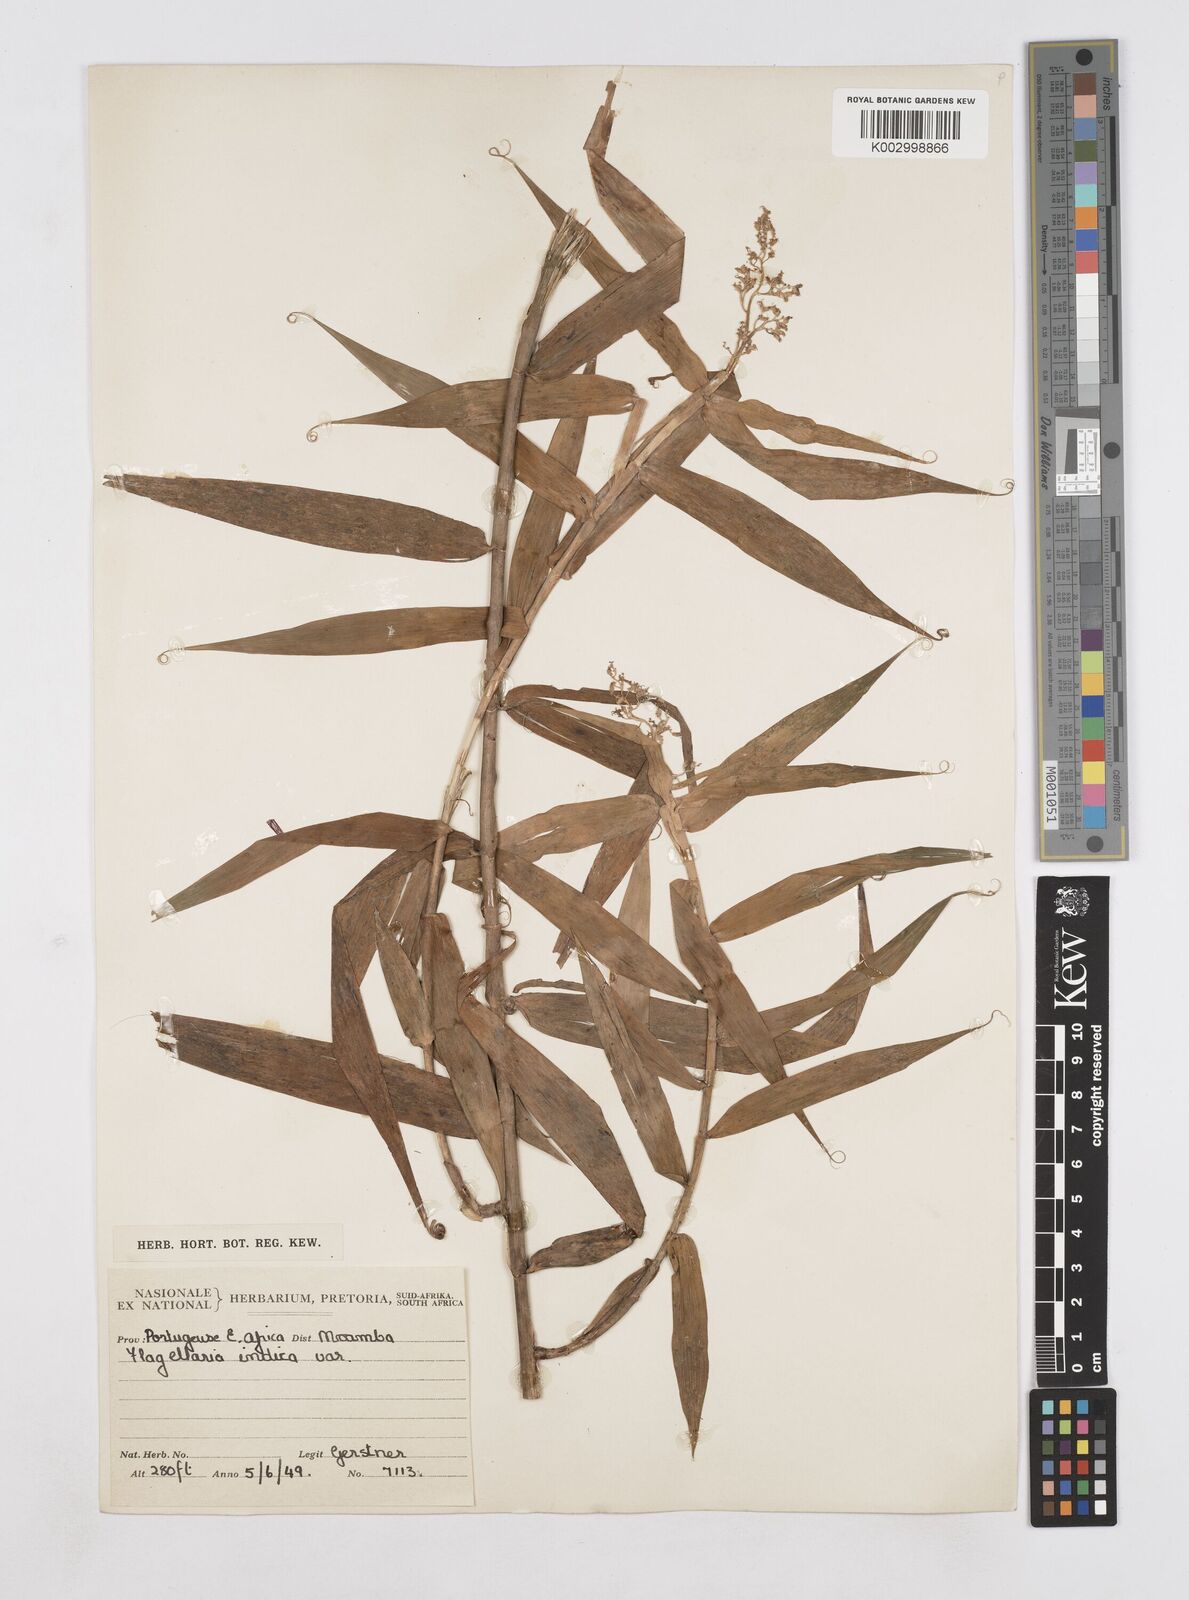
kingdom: Plantae
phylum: Tracheophyta
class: Liliopsida
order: Poales
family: Flagellariaceae
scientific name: Flagellariaceae
